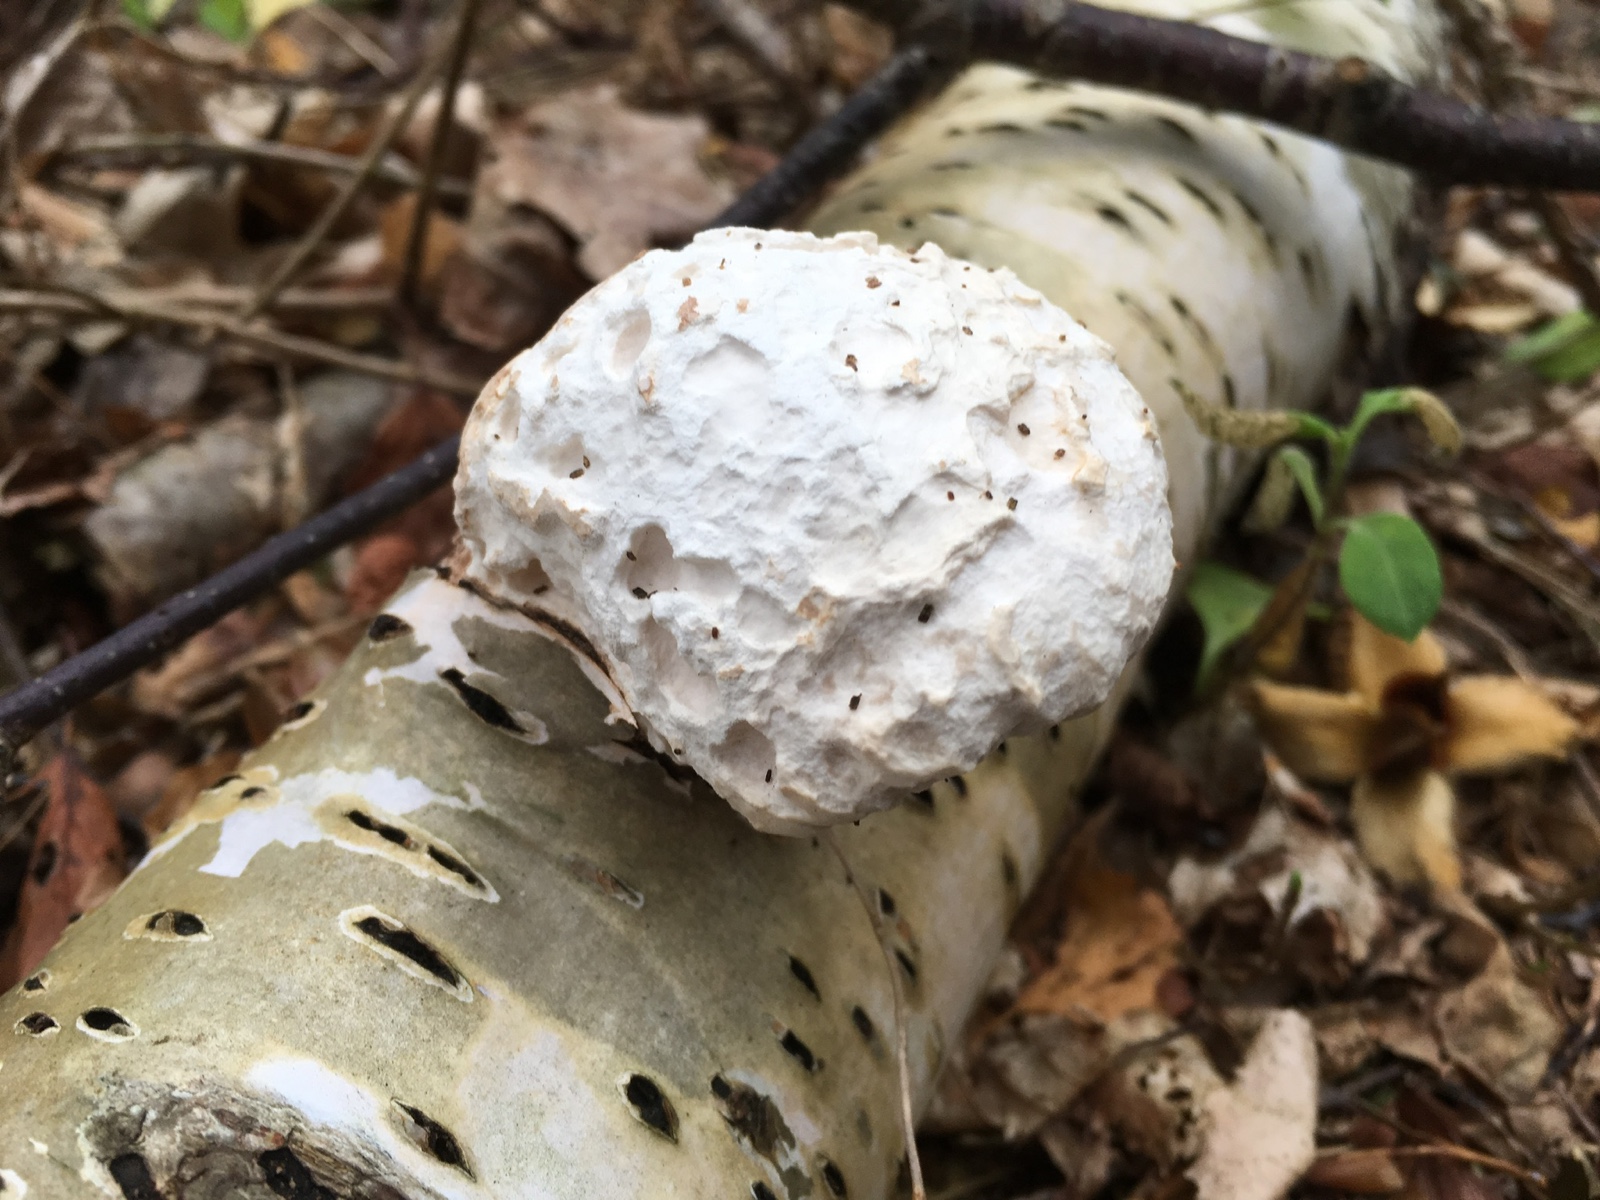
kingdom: Fungi
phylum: Basidiomycota
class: Agaricomycetes
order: Polyporales
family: Fomitopsidaceae
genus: Fomitopsis
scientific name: Fomitopsis betulina
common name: birkeporesvamp
